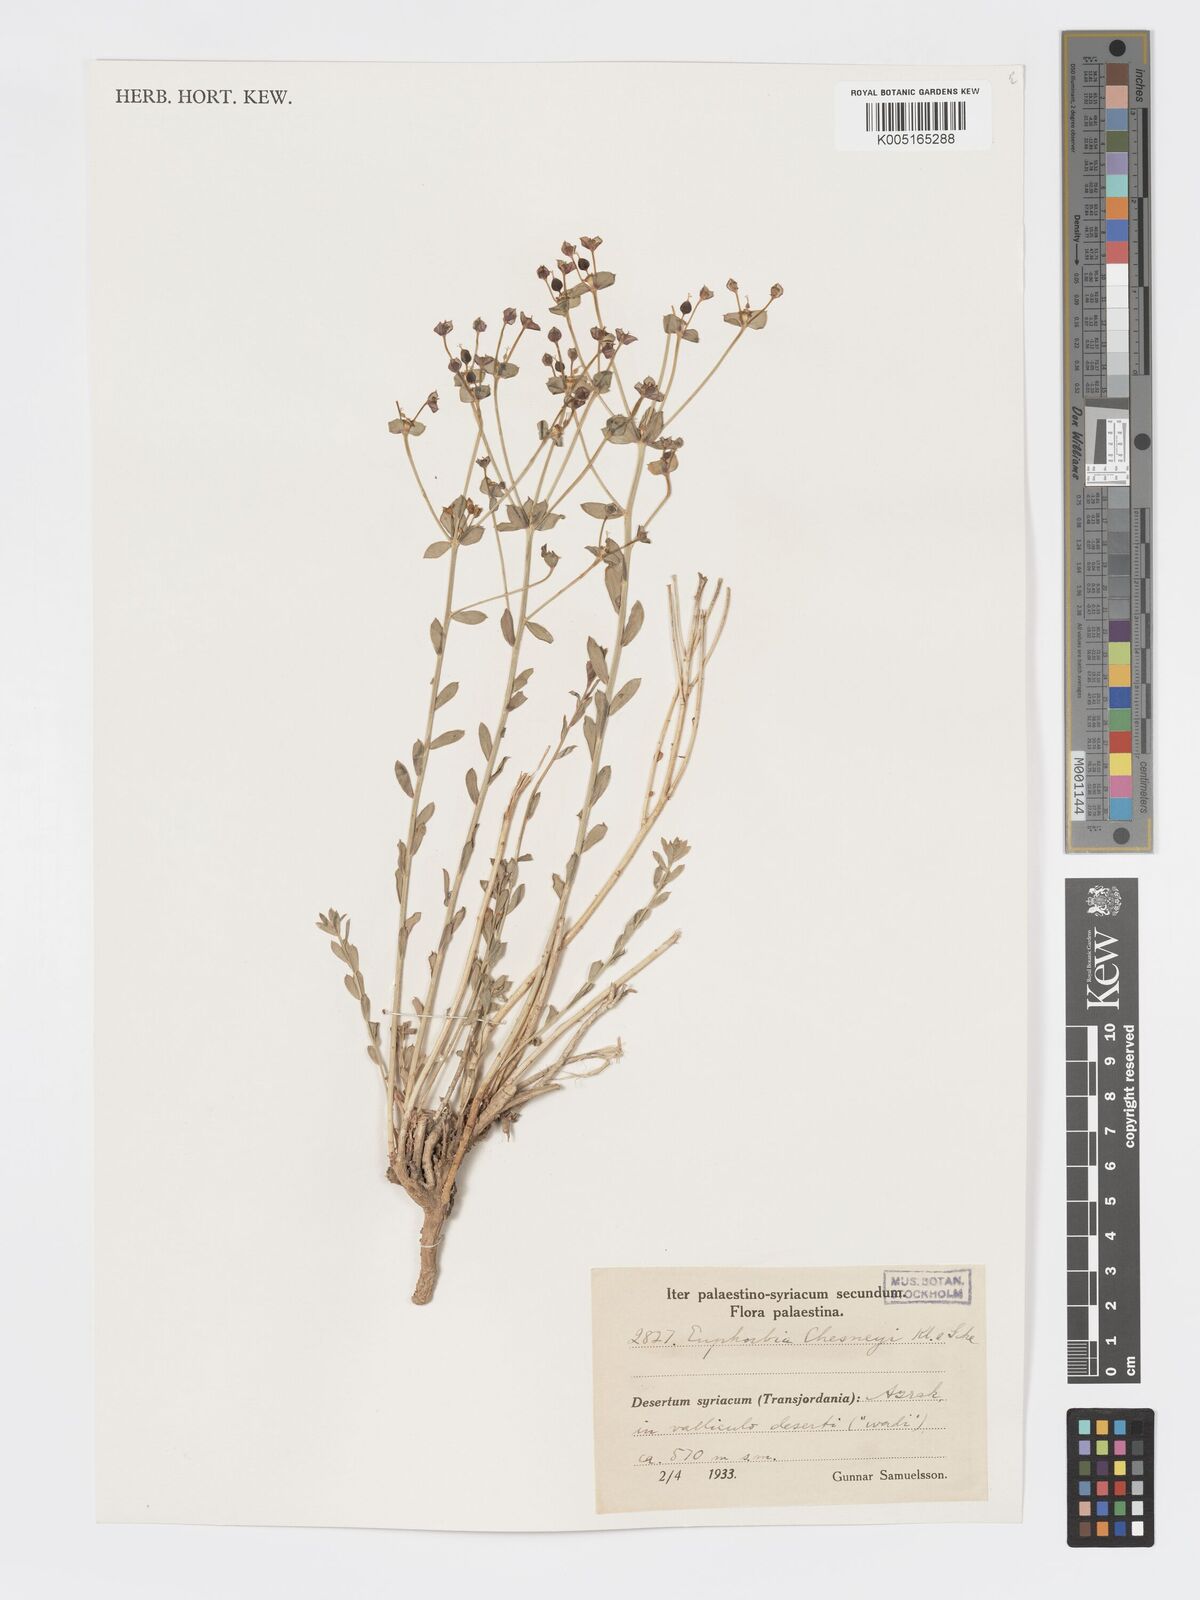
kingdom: Plantae
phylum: Tracheophyta
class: Magnoliopsida
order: Malpighiales
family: Euphorbiaceae
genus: Euphorbia
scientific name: Euphorbia
